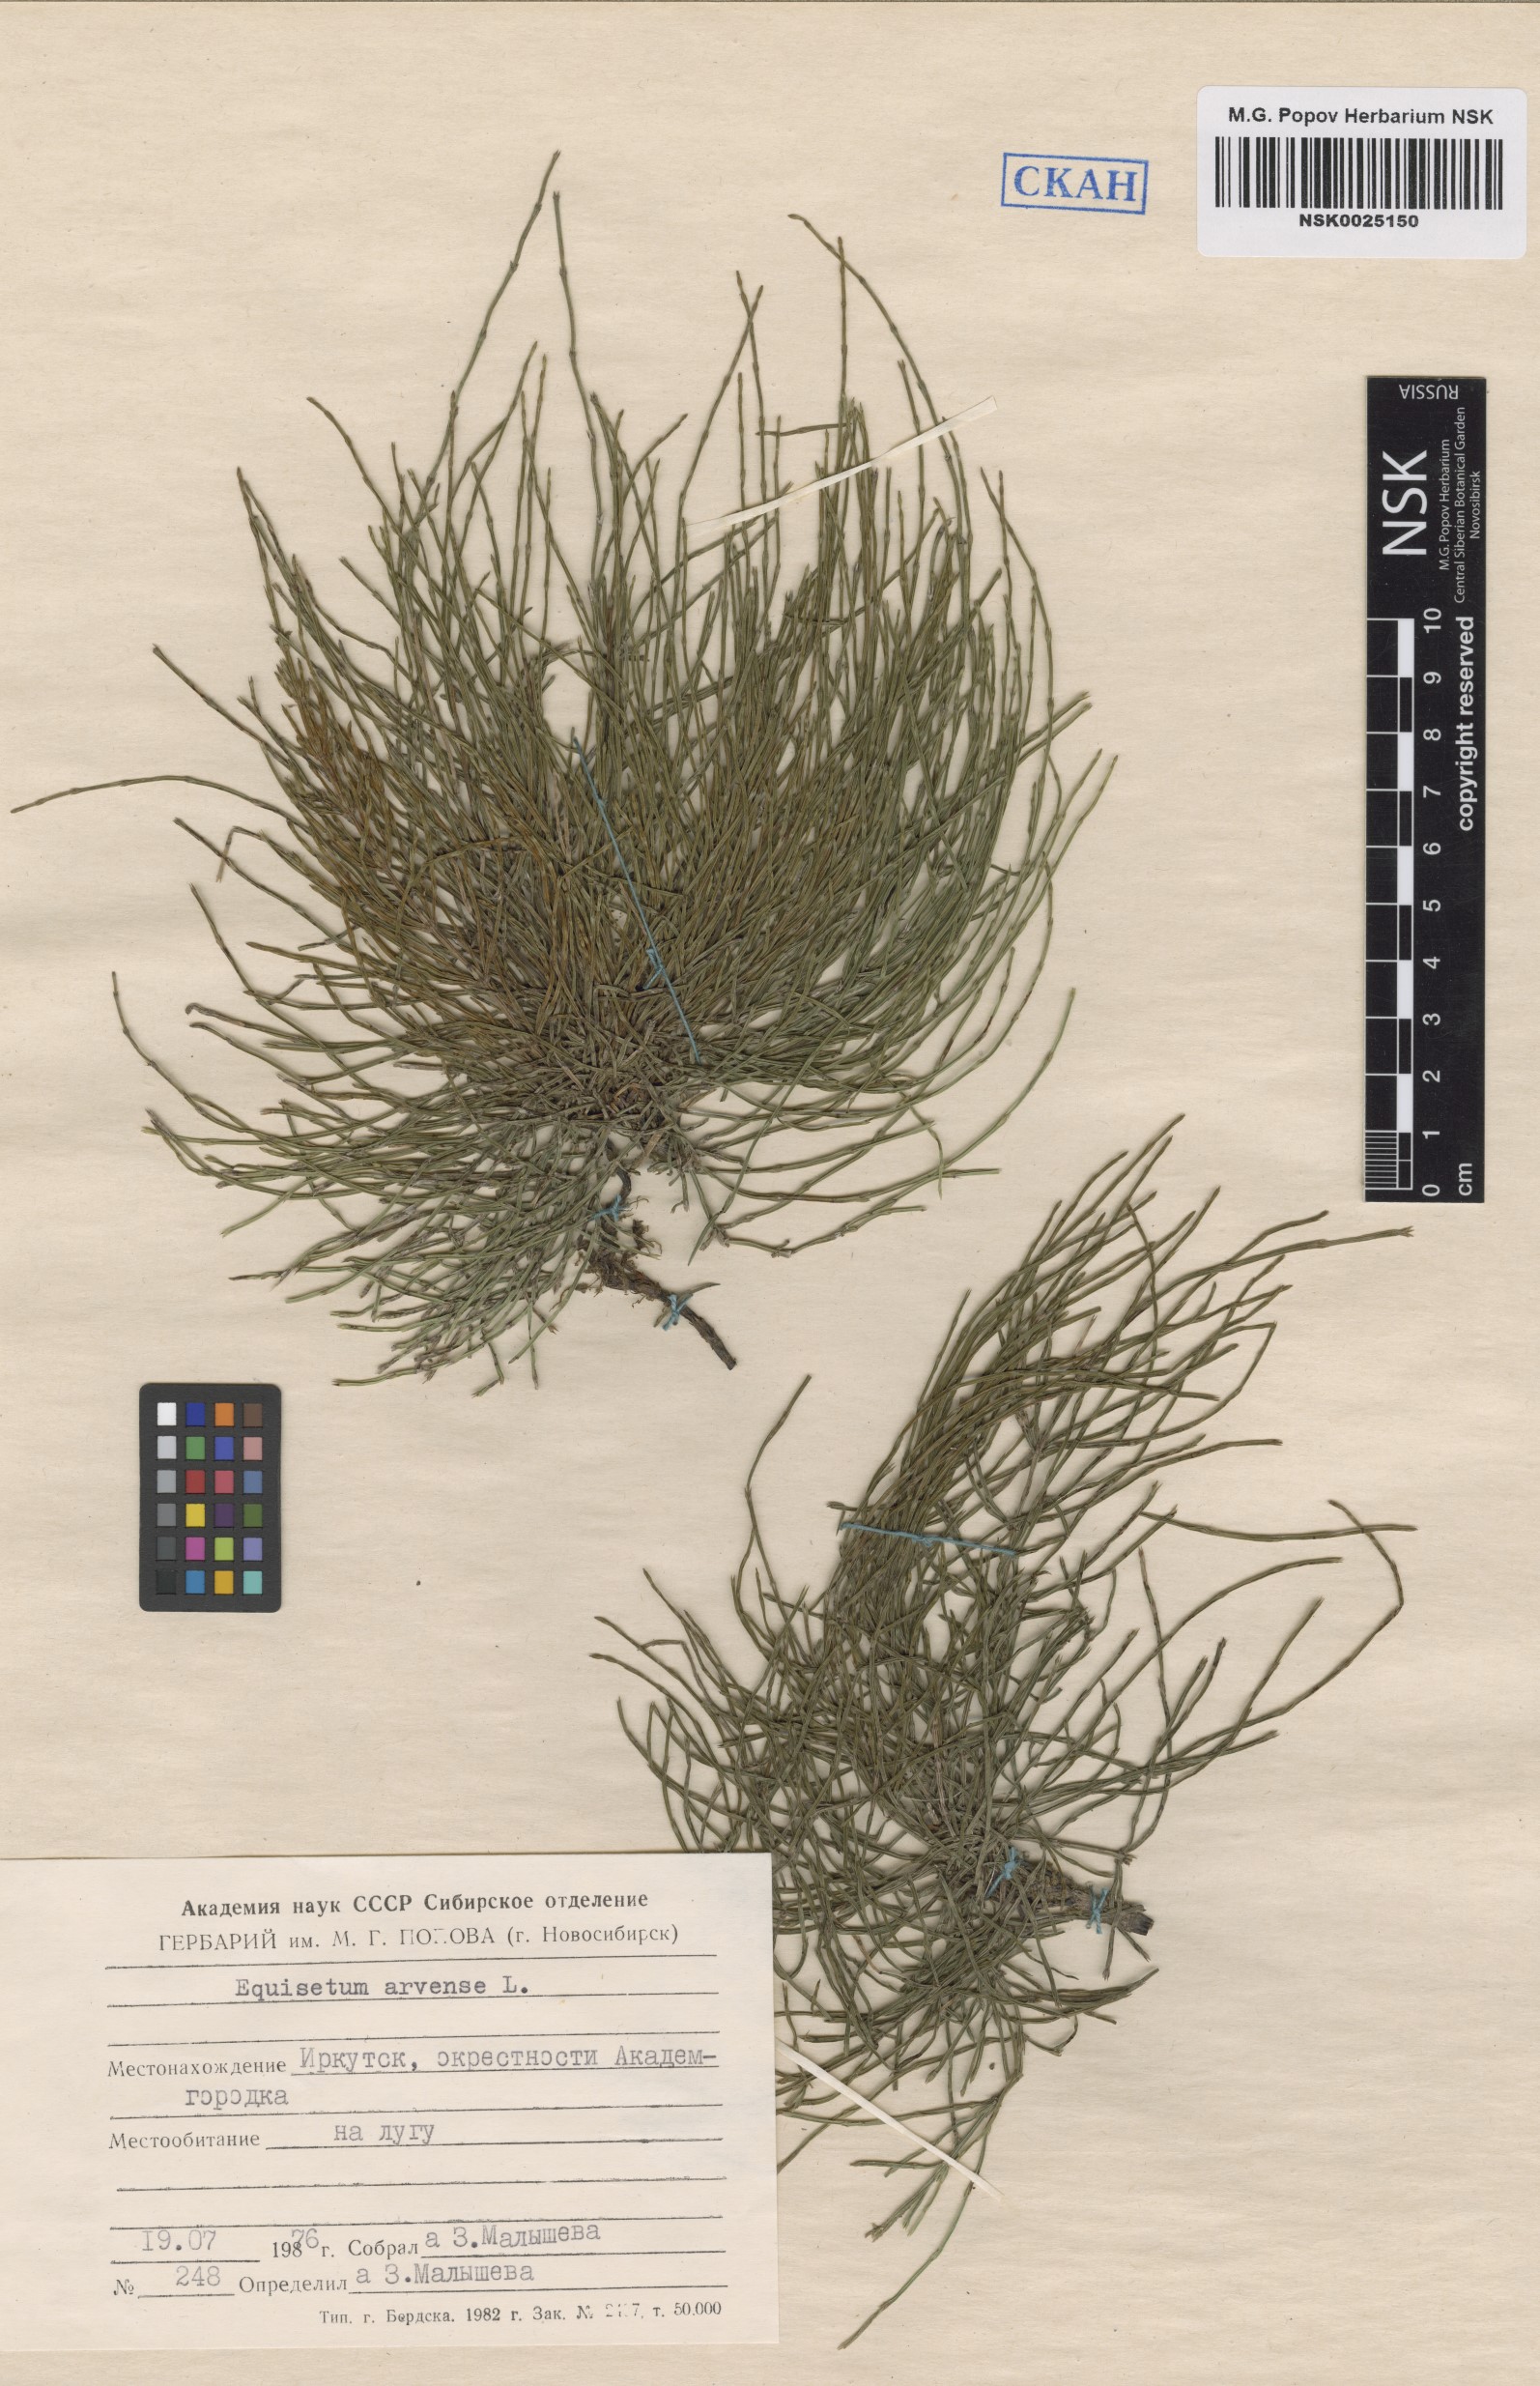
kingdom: Plantae
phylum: Tracheophyta
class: Polypodiopsida
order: Equisetales
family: Equisetaceae
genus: Equisetum
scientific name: Equisetum arvense
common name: Field horsetail
